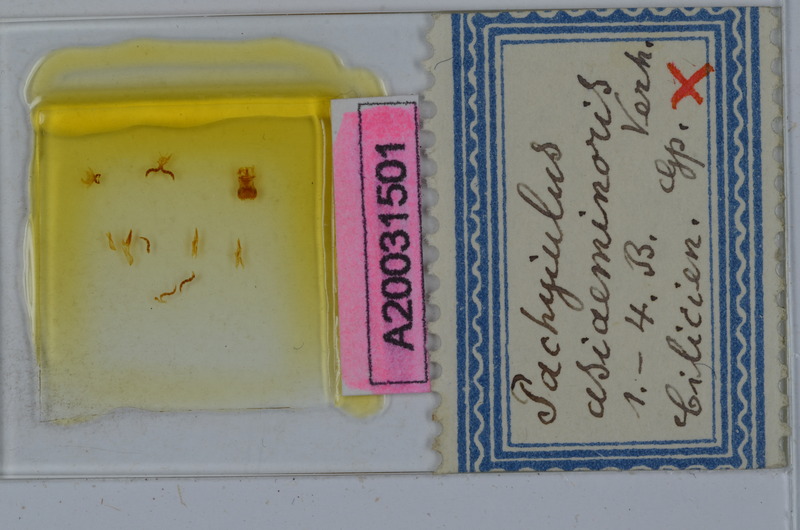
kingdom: Animalia
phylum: Arthropoda
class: Diplopoda
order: Julida
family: Julidae
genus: Pachyiulus
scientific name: Pachyiulus asiaeminoris
